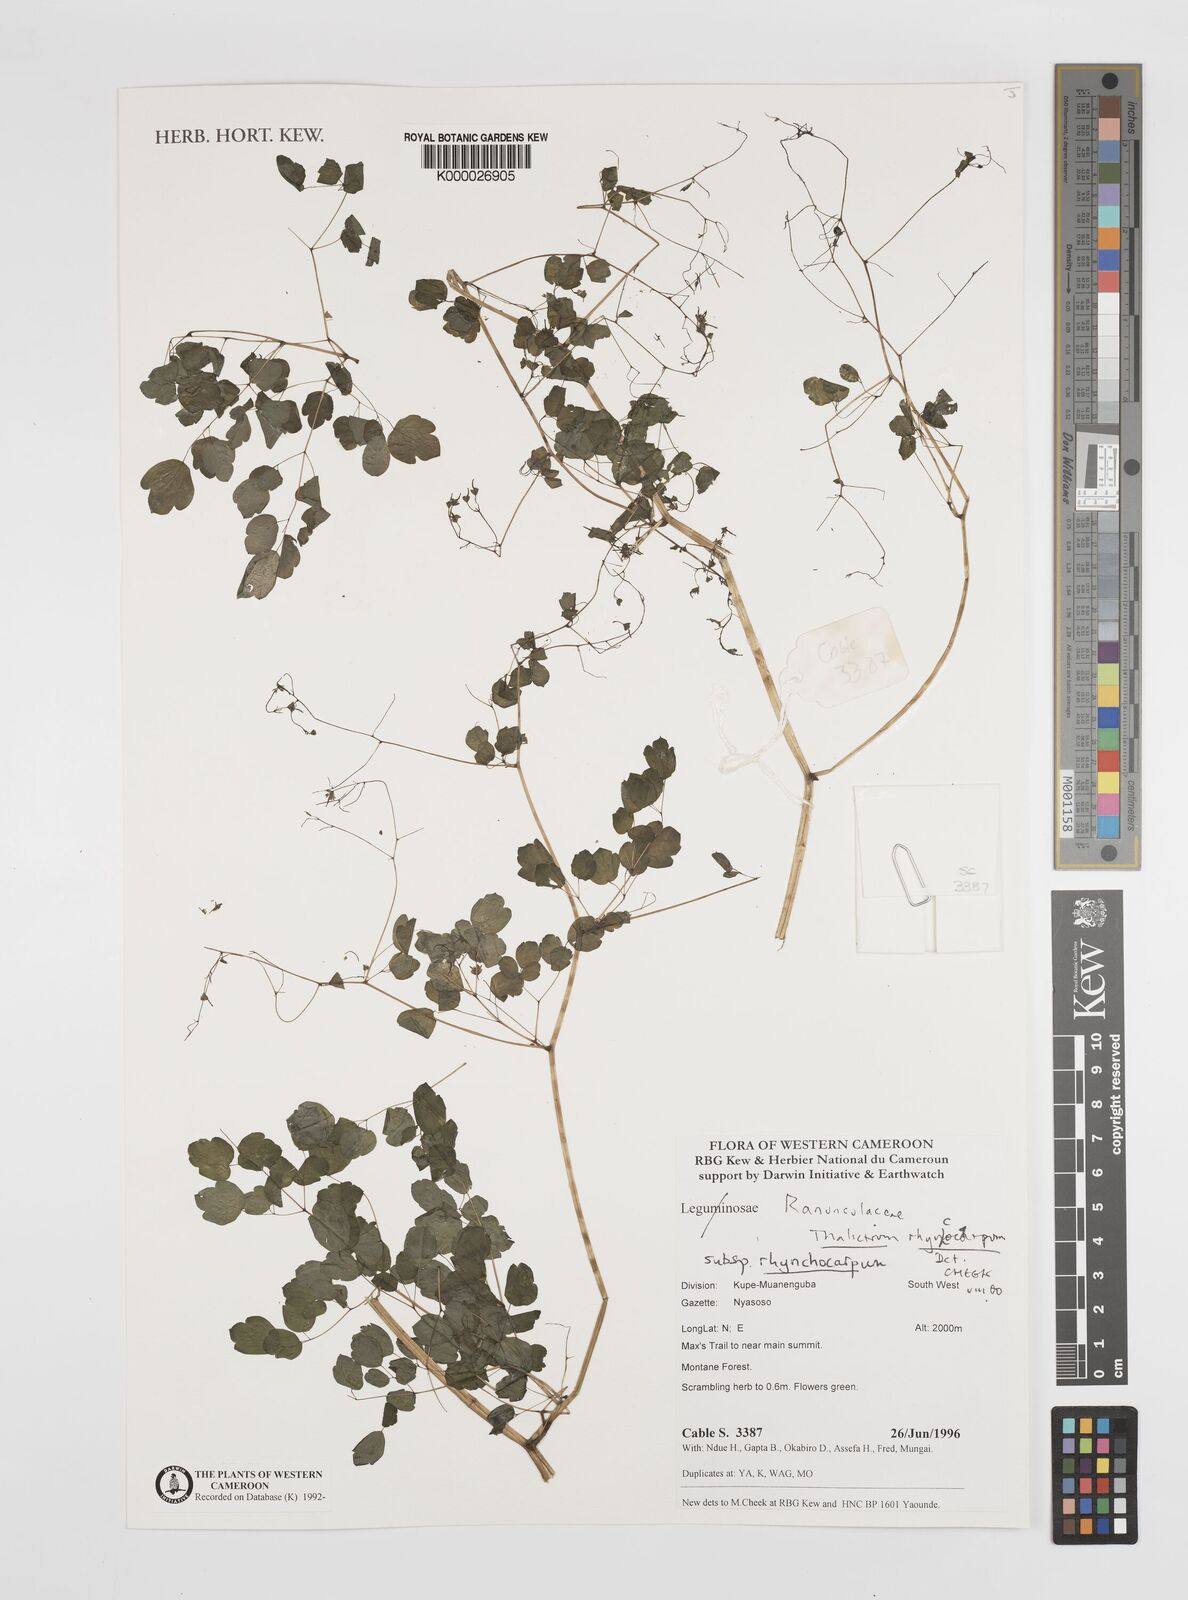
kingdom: Plantae
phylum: Tracheophyta
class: Magnoliopsida
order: Ranunculales
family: Ranunculaceae
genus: Thalictrum
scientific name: Thalictrum rhynchocarpum
